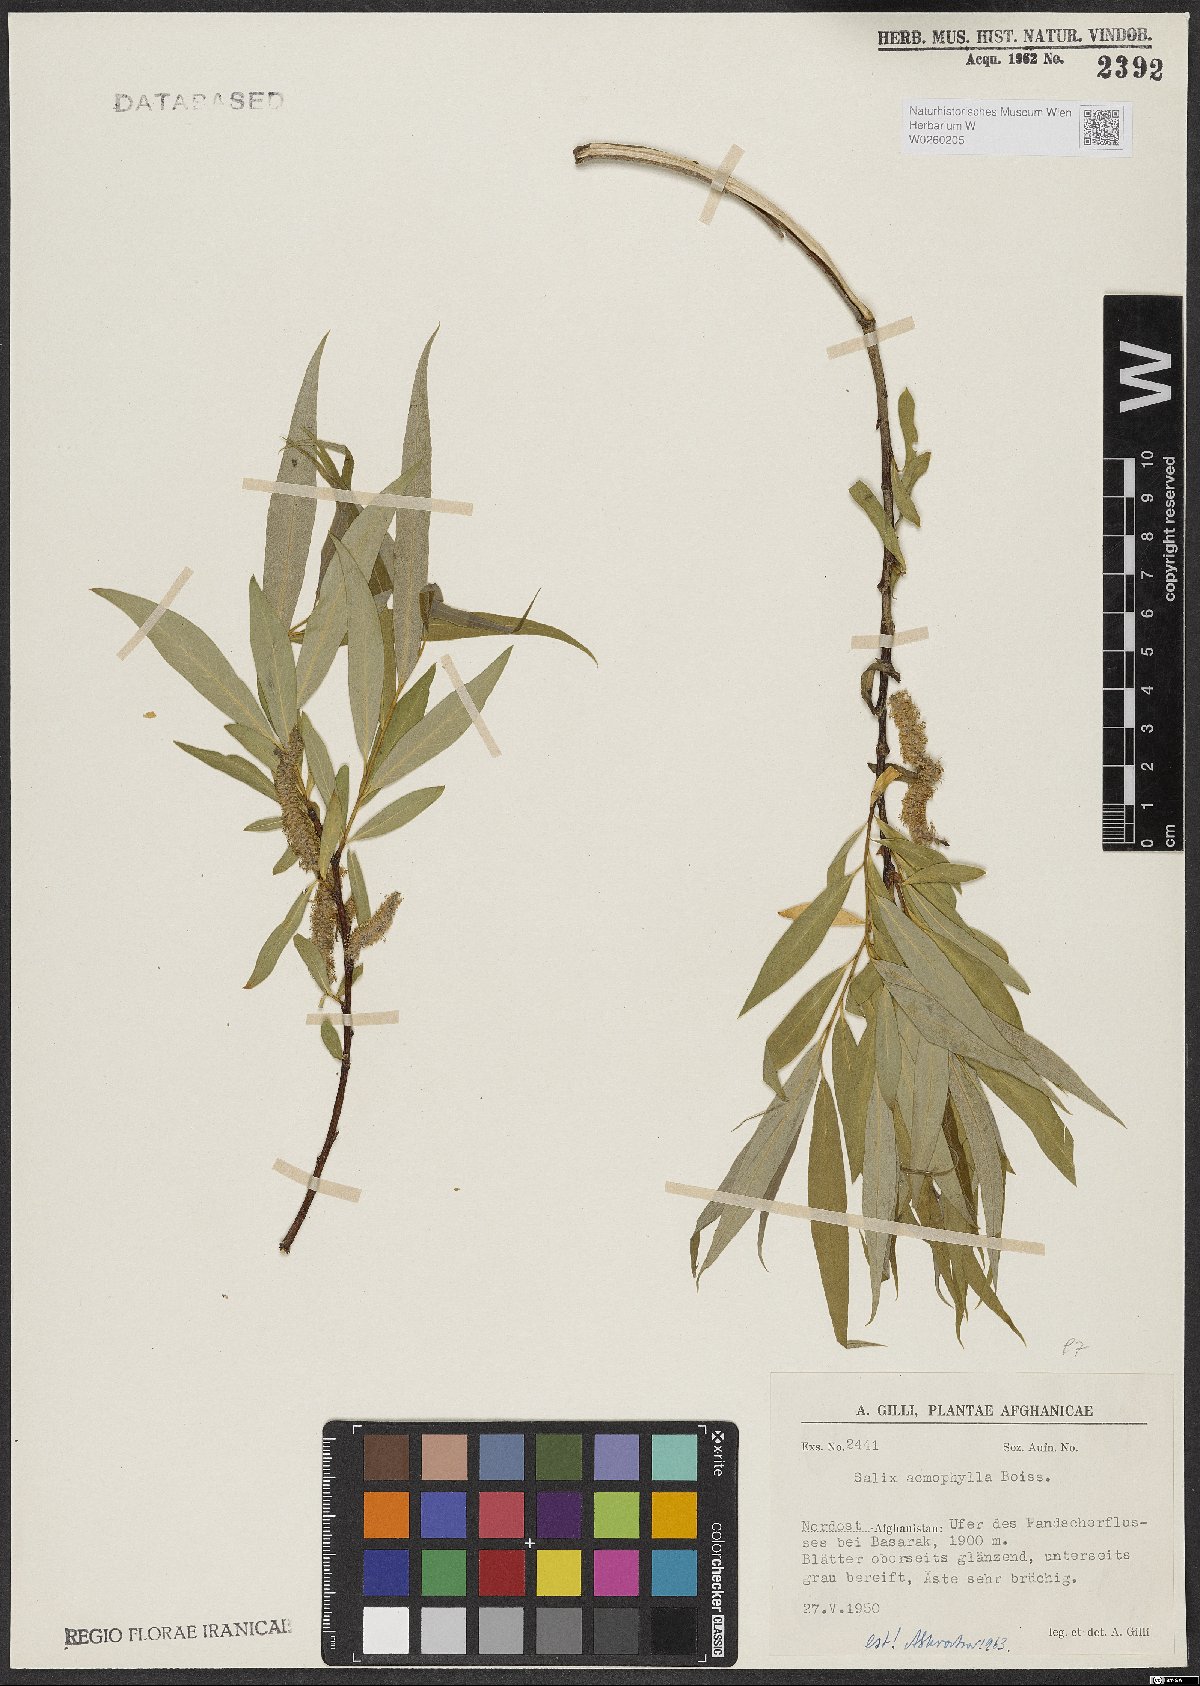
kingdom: Plantae
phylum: Tracheophyta
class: Magnoliopsida
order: Malpighiales
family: Salicaceae
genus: Salix
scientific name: Salix acmophylla
